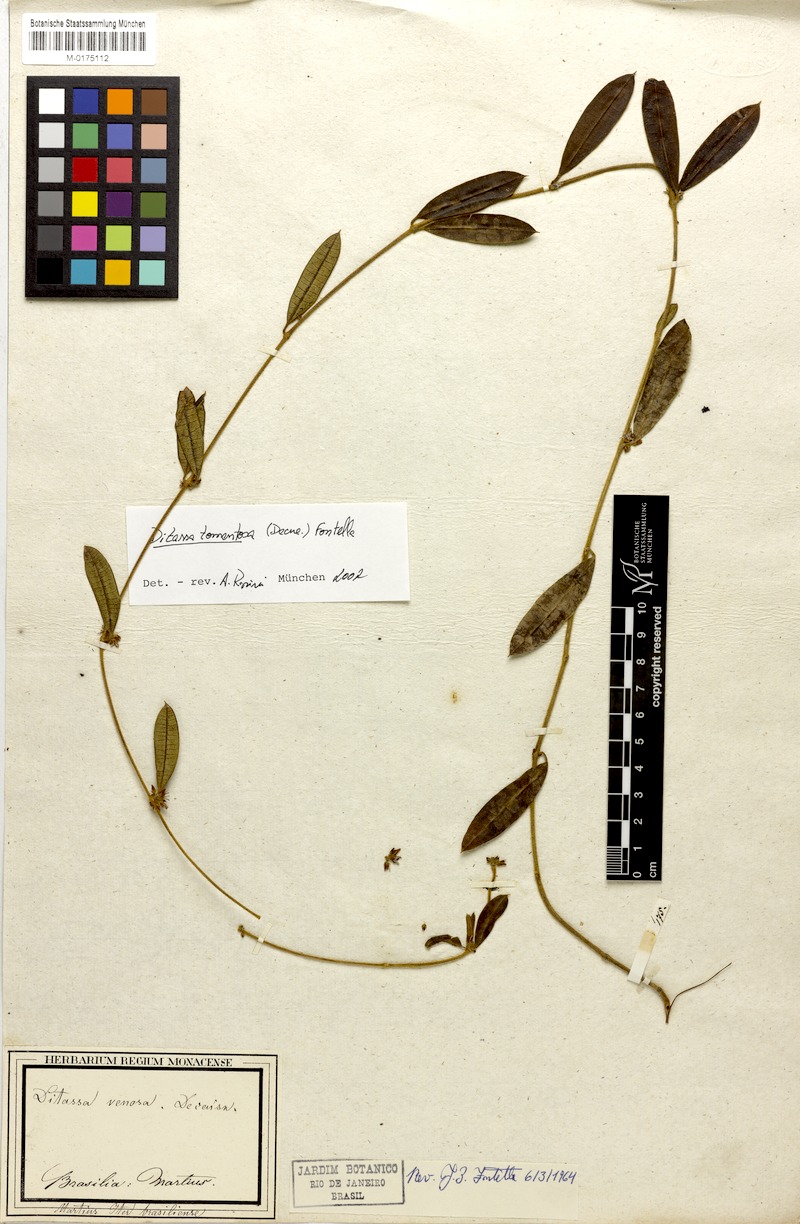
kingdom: Plantae
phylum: Tracheophyta
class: Magnoliopsida
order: Gentianales
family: Apocynaceae
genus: Ditassa
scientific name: Ditassa tomentosa
